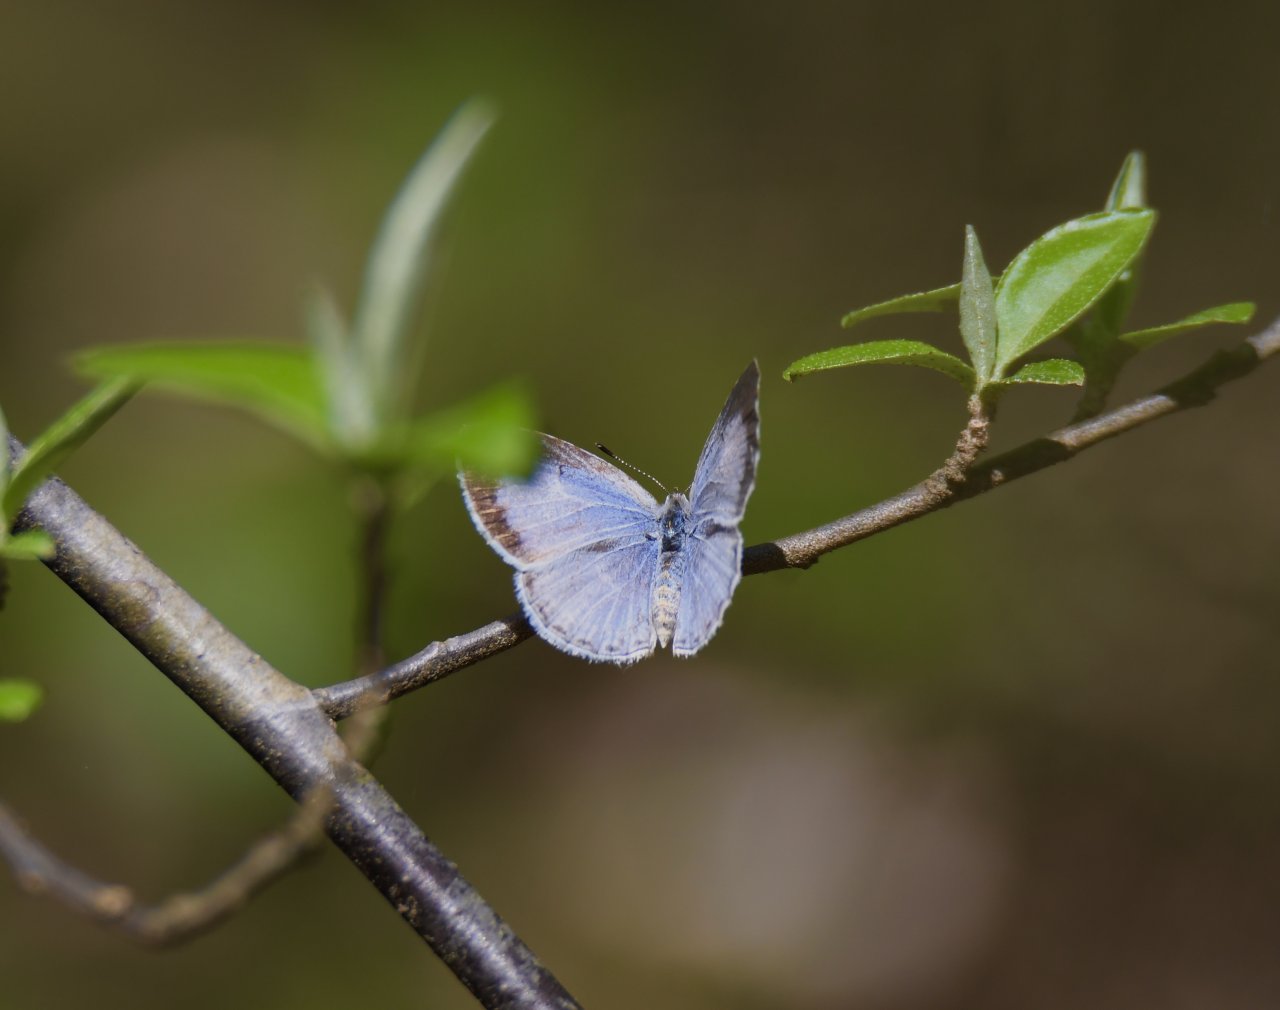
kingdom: Animalia
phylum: Arthropoda
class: Insecta
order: Lepidoptera
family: Lycaenidae
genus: Cyaniris
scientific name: Cyaniris neglecta
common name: Summer Azure
